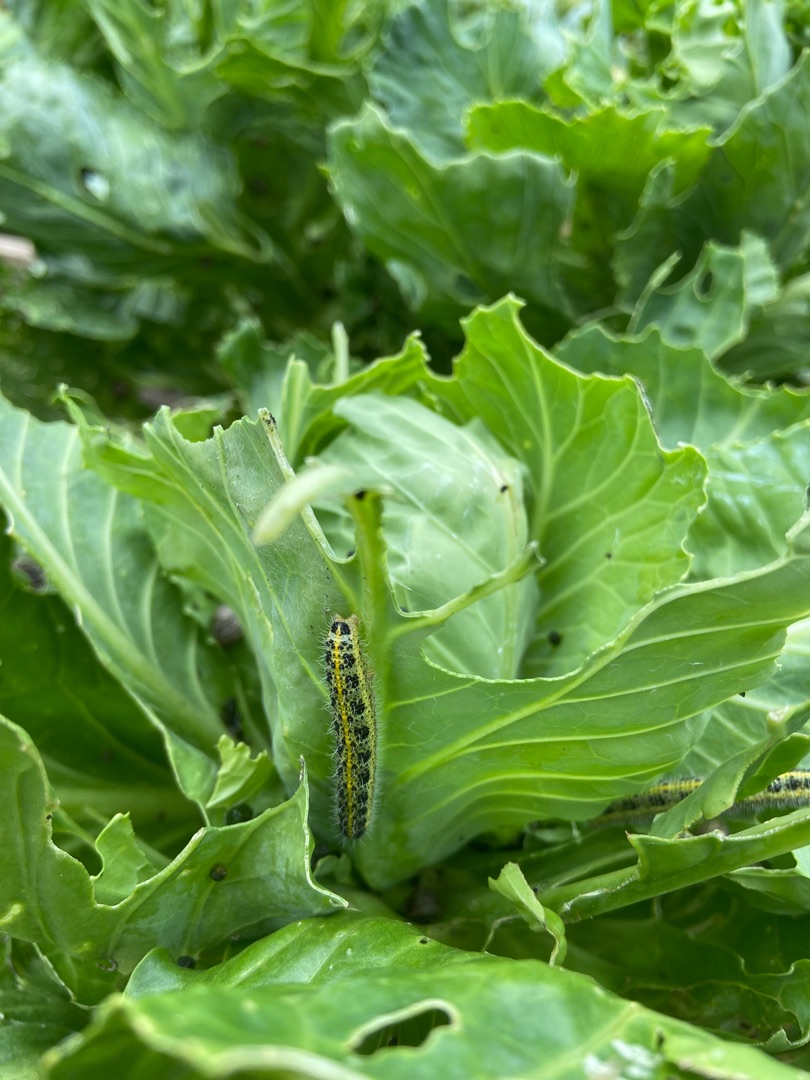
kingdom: Animalia
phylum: Arthropoda
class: Insecta
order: Lepidoptera
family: Pieridae
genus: Pieris
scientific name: Pieris brassicae
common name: Stor kålsommerfugl
